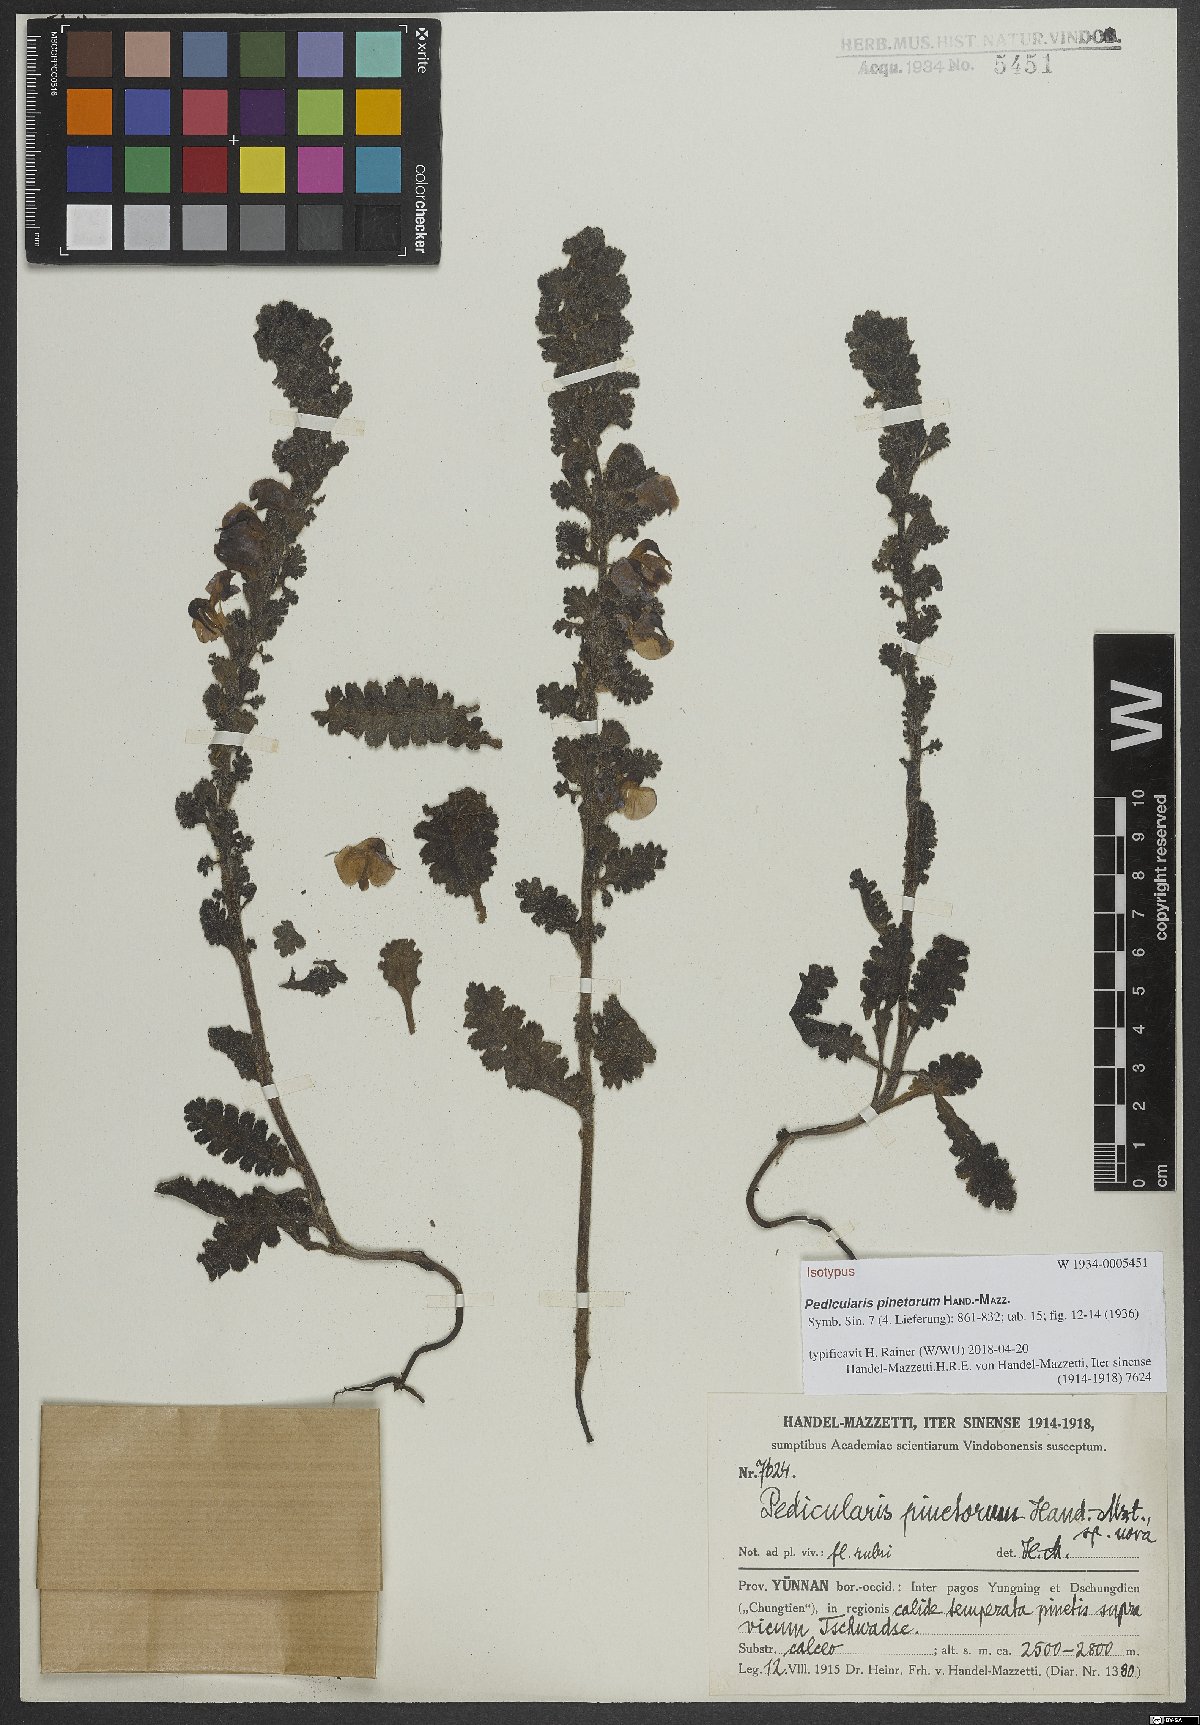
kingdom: Plantae
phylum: Tracheophyta
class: Magnoliopsida
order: Lamiales
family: Orobanchaceae
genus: Pedicularis
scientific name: Pedicularis pinetorum
